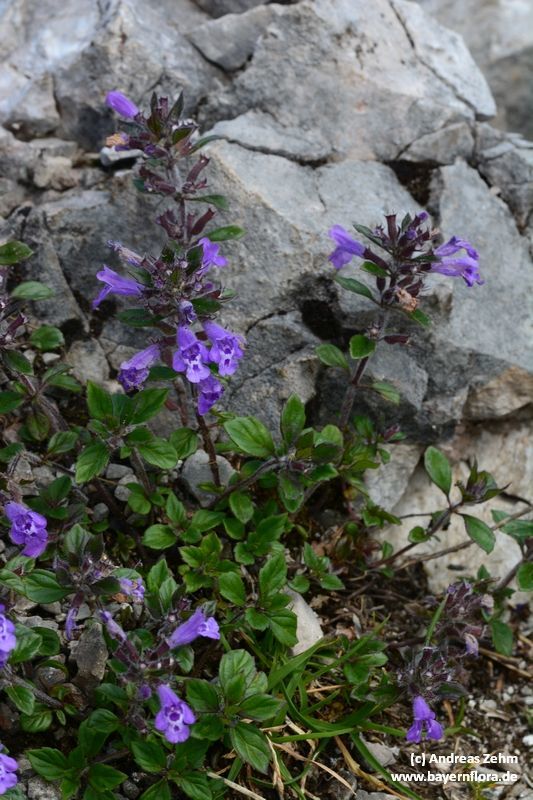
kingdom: Plantae
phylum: Tracheophyta
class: Magnoliopsida
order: Lamiales
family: Lamiaceae
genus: Clinopodium
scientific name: Clinopodium alpinum
